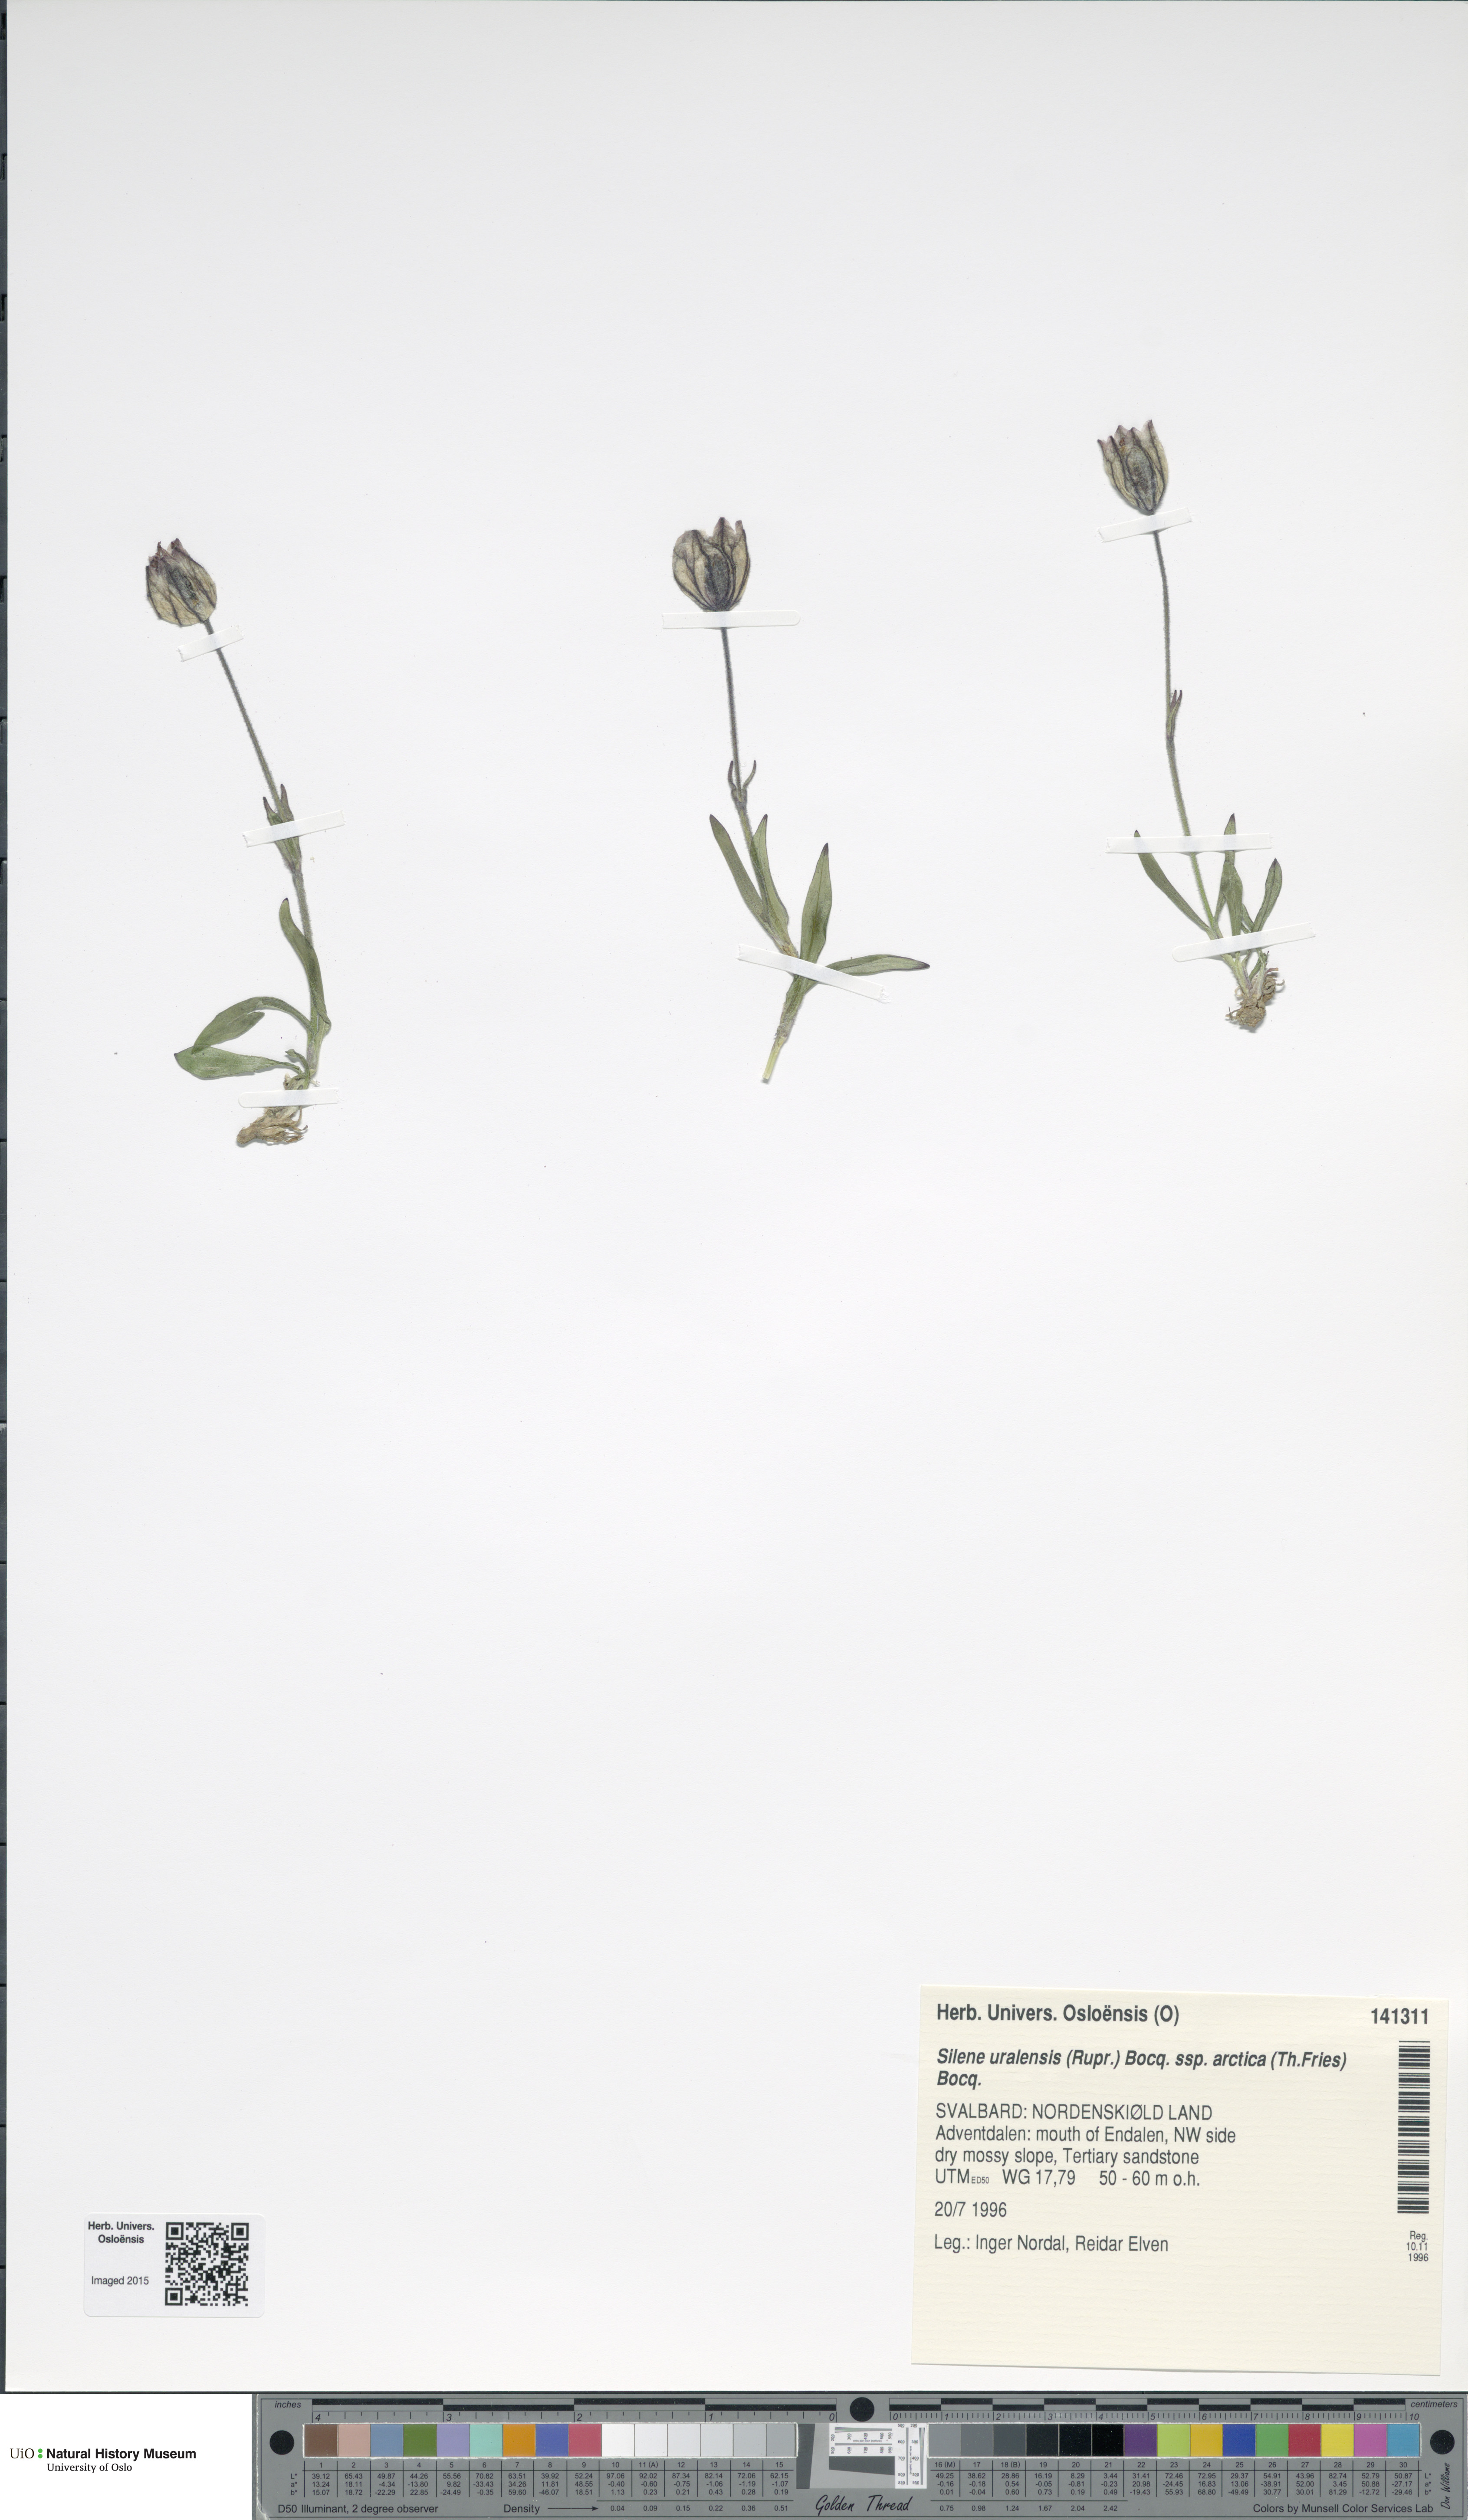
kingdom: Plantae
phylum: Tracheophyta
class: Magnoliopsida
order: Caryophyllales
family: Caryophyllaceae
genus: Silene
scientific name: Silene uralensis
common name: Nodding campion
